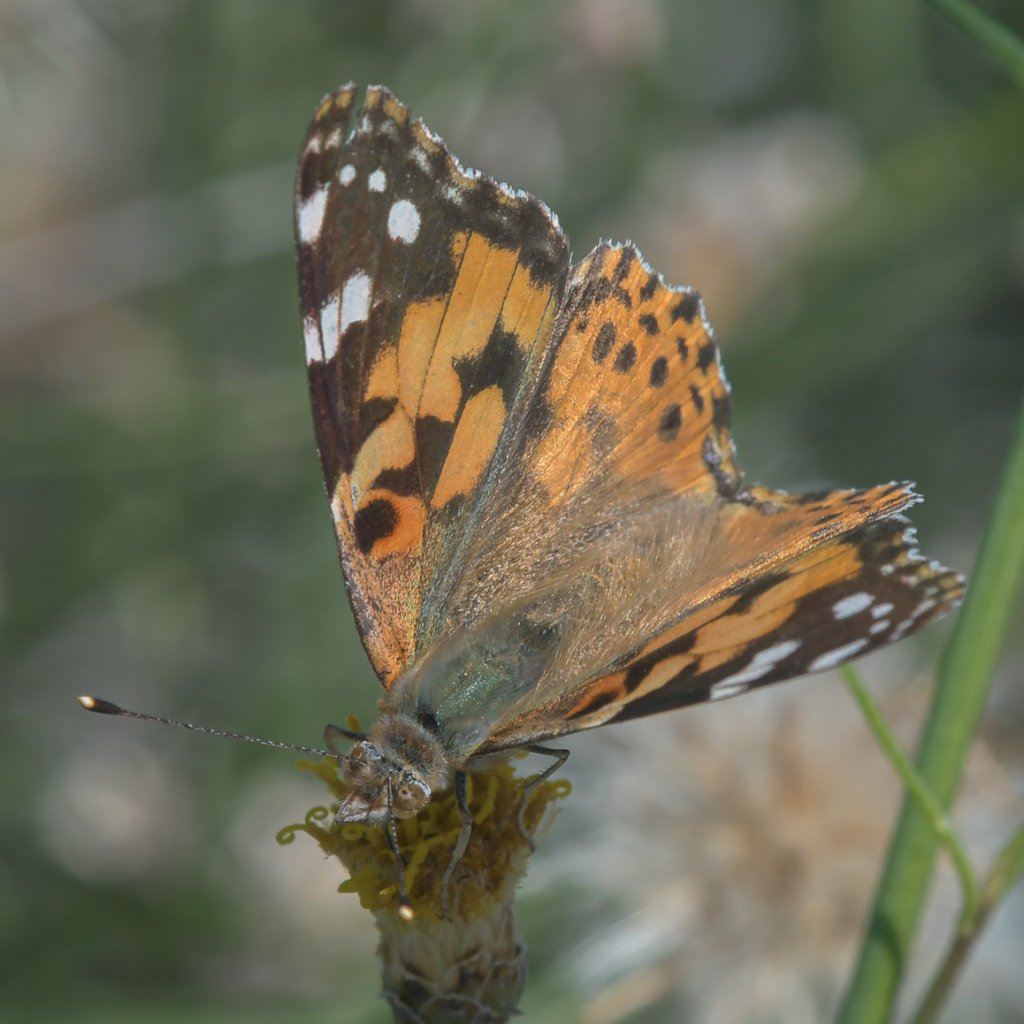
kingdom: Animalia
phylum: Arthropoda
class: Insecta
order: Lepidoptera
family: Nymphalidae
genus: Vanessa
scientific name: Vanessa cardui
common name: Painted Lady
